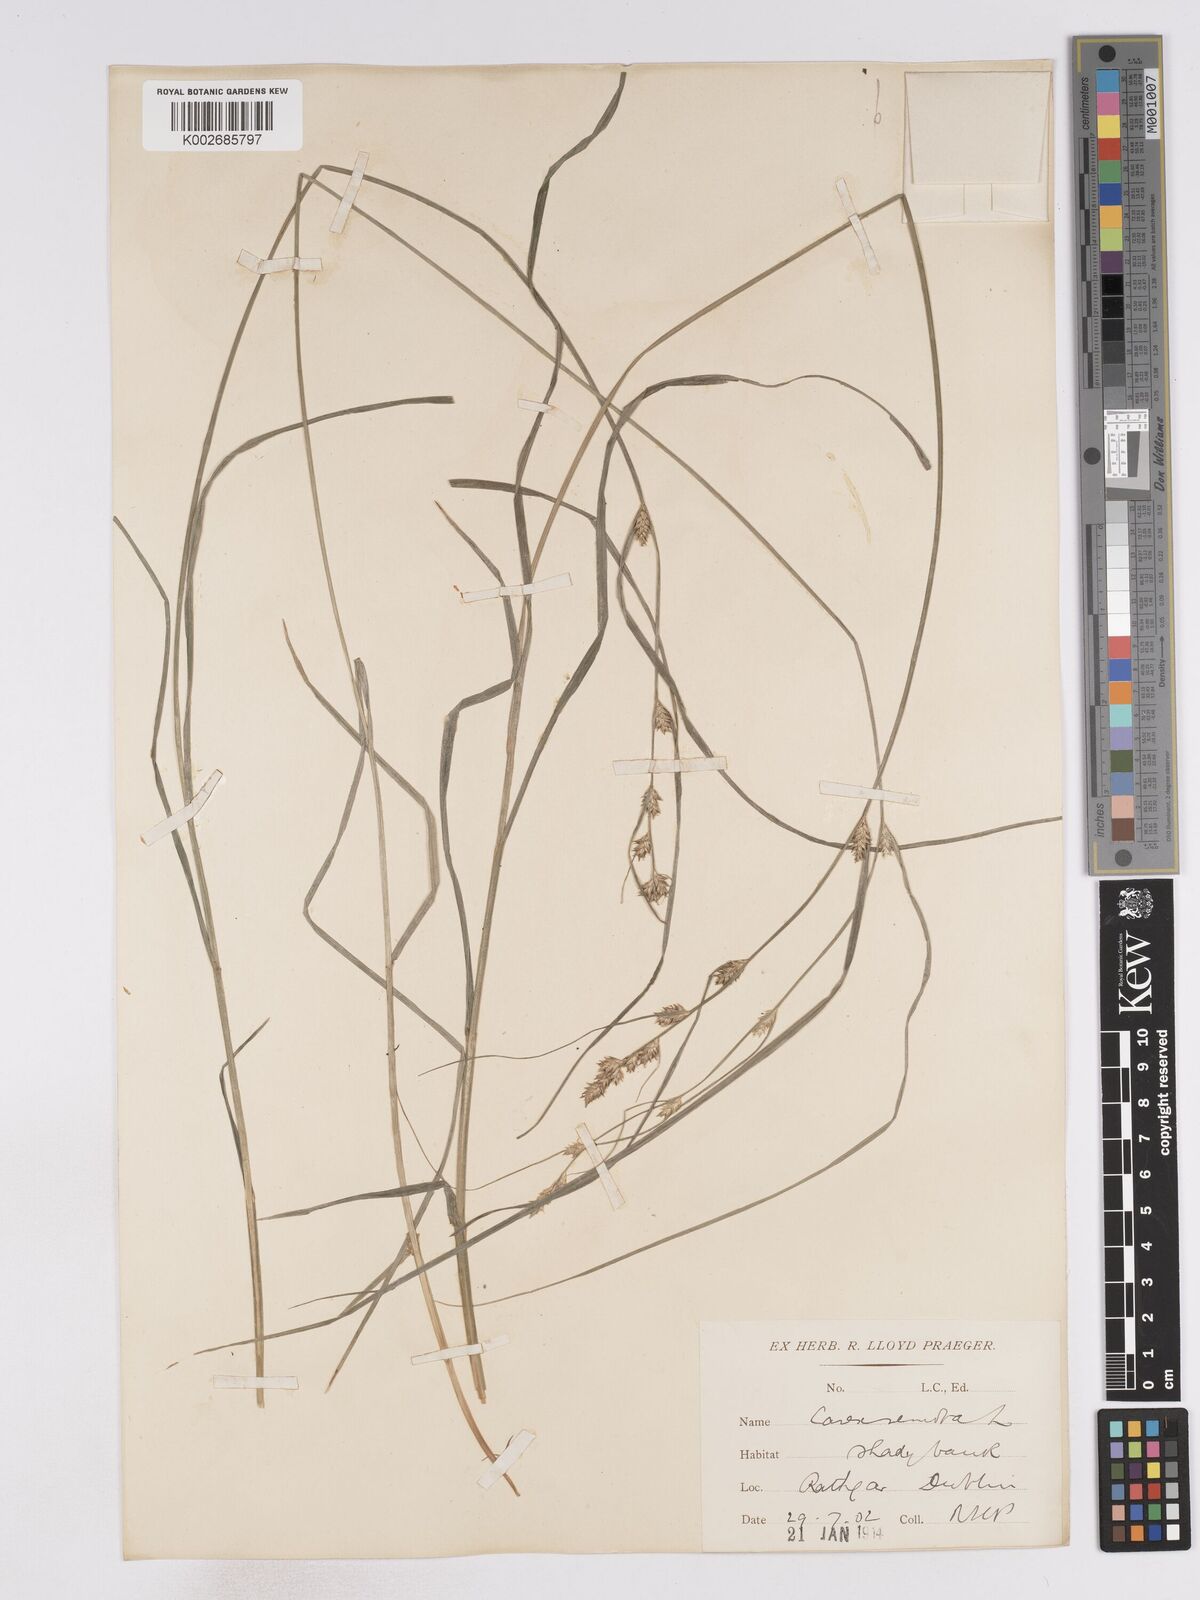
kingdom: Plantae
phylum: Tracheophyta
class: Liliopsida
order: Poales
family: Cyperaceae
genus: Carex
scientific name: Carex remota
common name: Remote sedge
